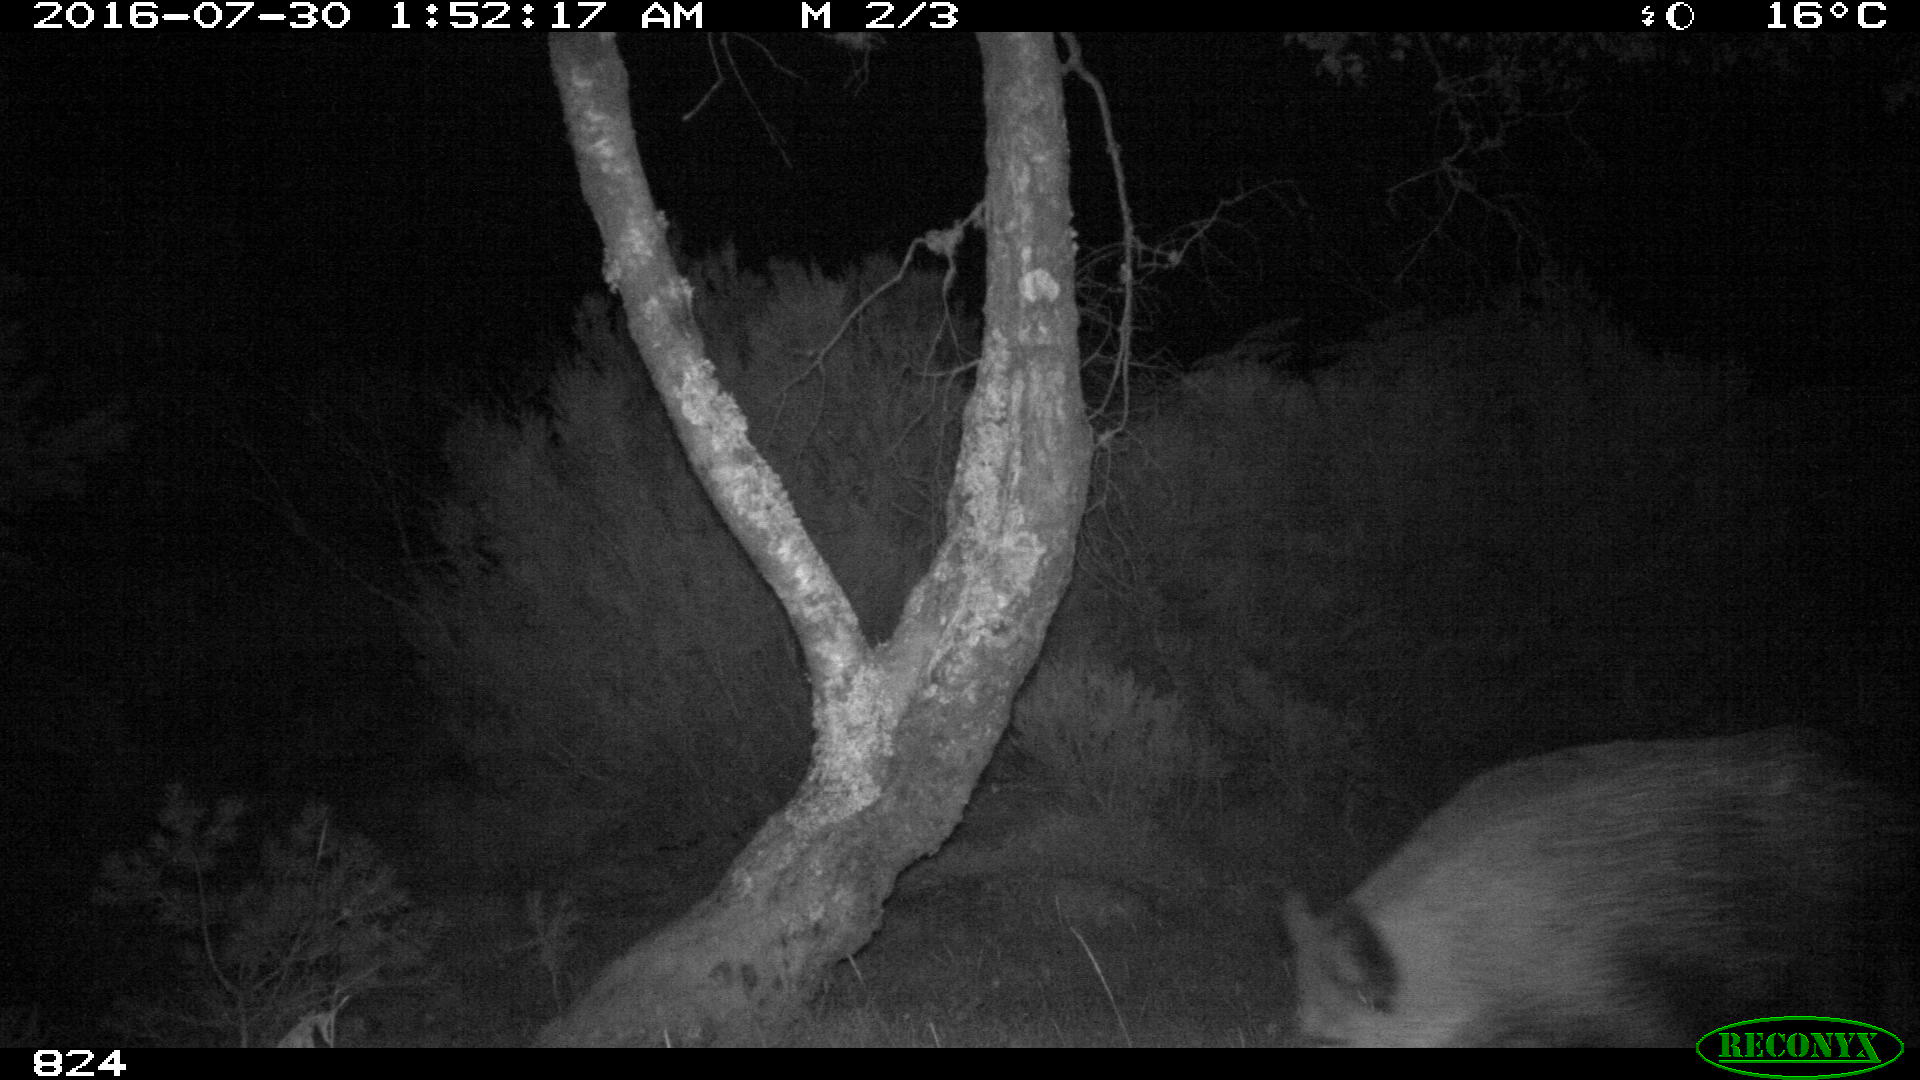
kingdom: Animalia
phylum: Chordata
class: Mammalia
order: Artiodactyla
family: Suidae
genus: Sus
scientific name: Sus scrofa
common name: Wild boar
